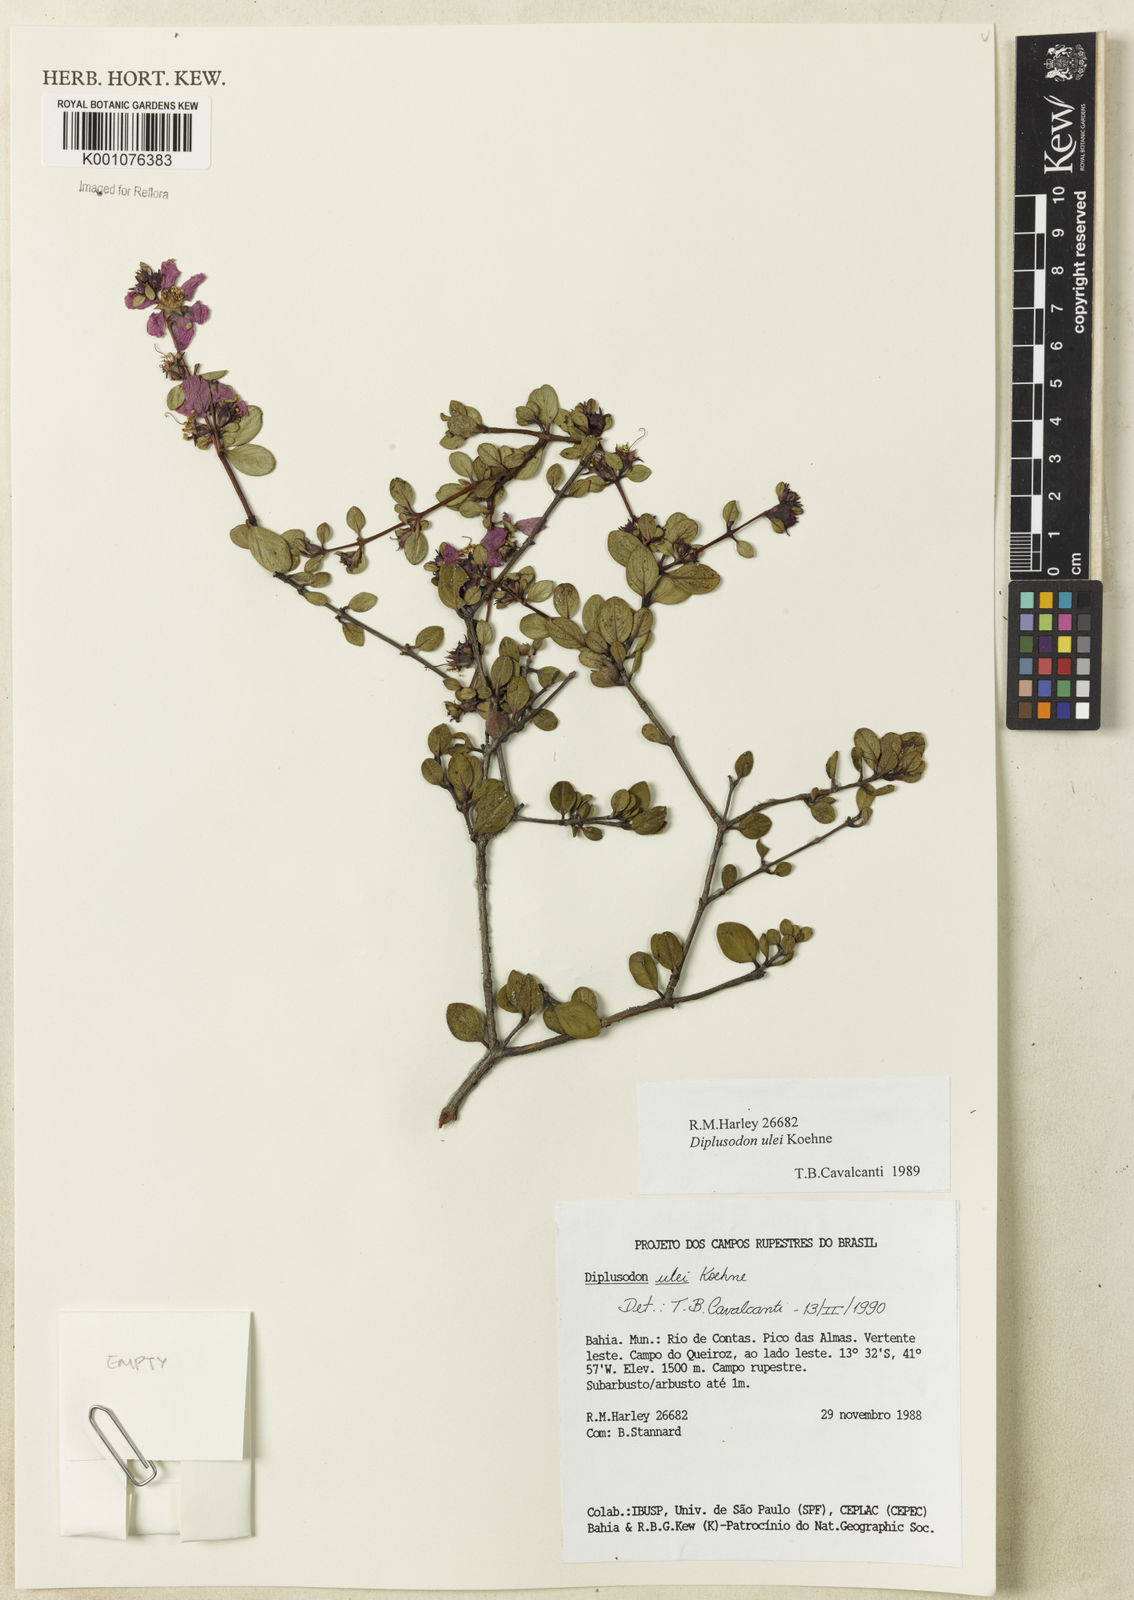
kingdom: Plantae
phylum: Tracheophyta
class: Magnoliopsida
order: Myrtales
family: Lythraceae
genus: Diplusodon
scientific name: Diplusodon ulei
